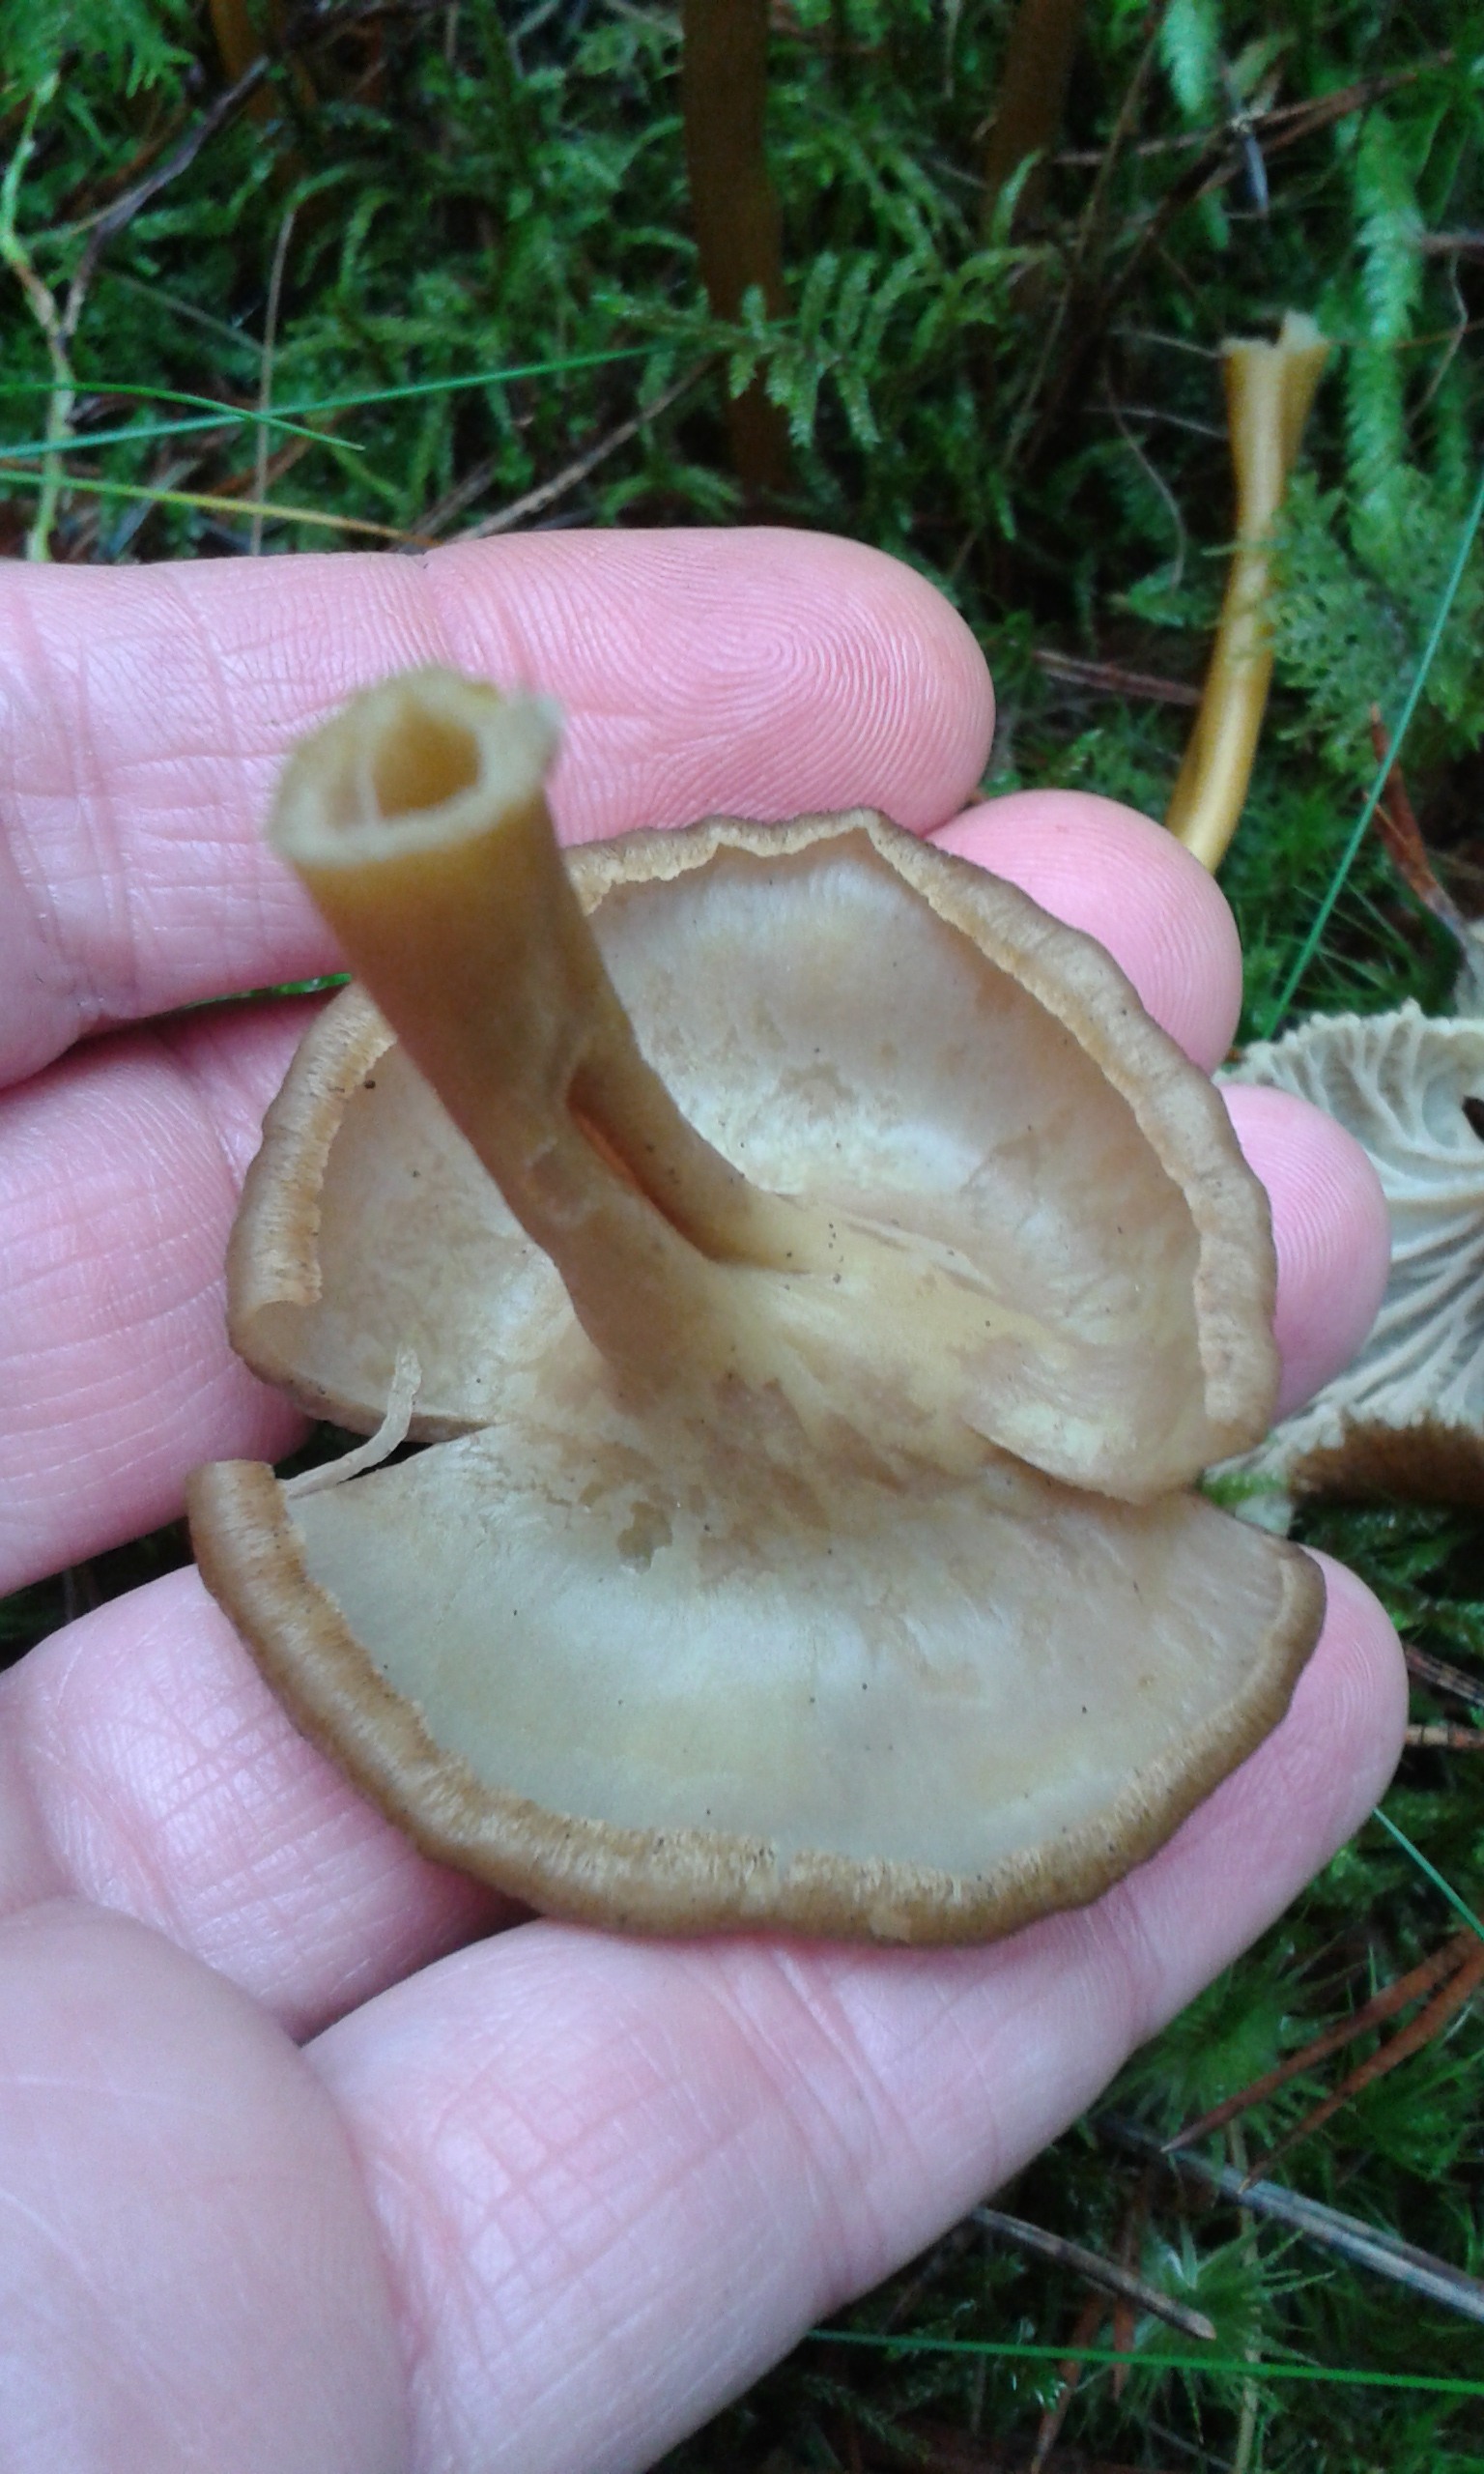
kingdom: Fungi
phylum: Basidiomycota
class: Agaricomycetes
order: Cantharellales
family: Hydnaceae
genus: Craterellus
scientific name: Craterellus tubaeformis
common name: Yellowfoot
